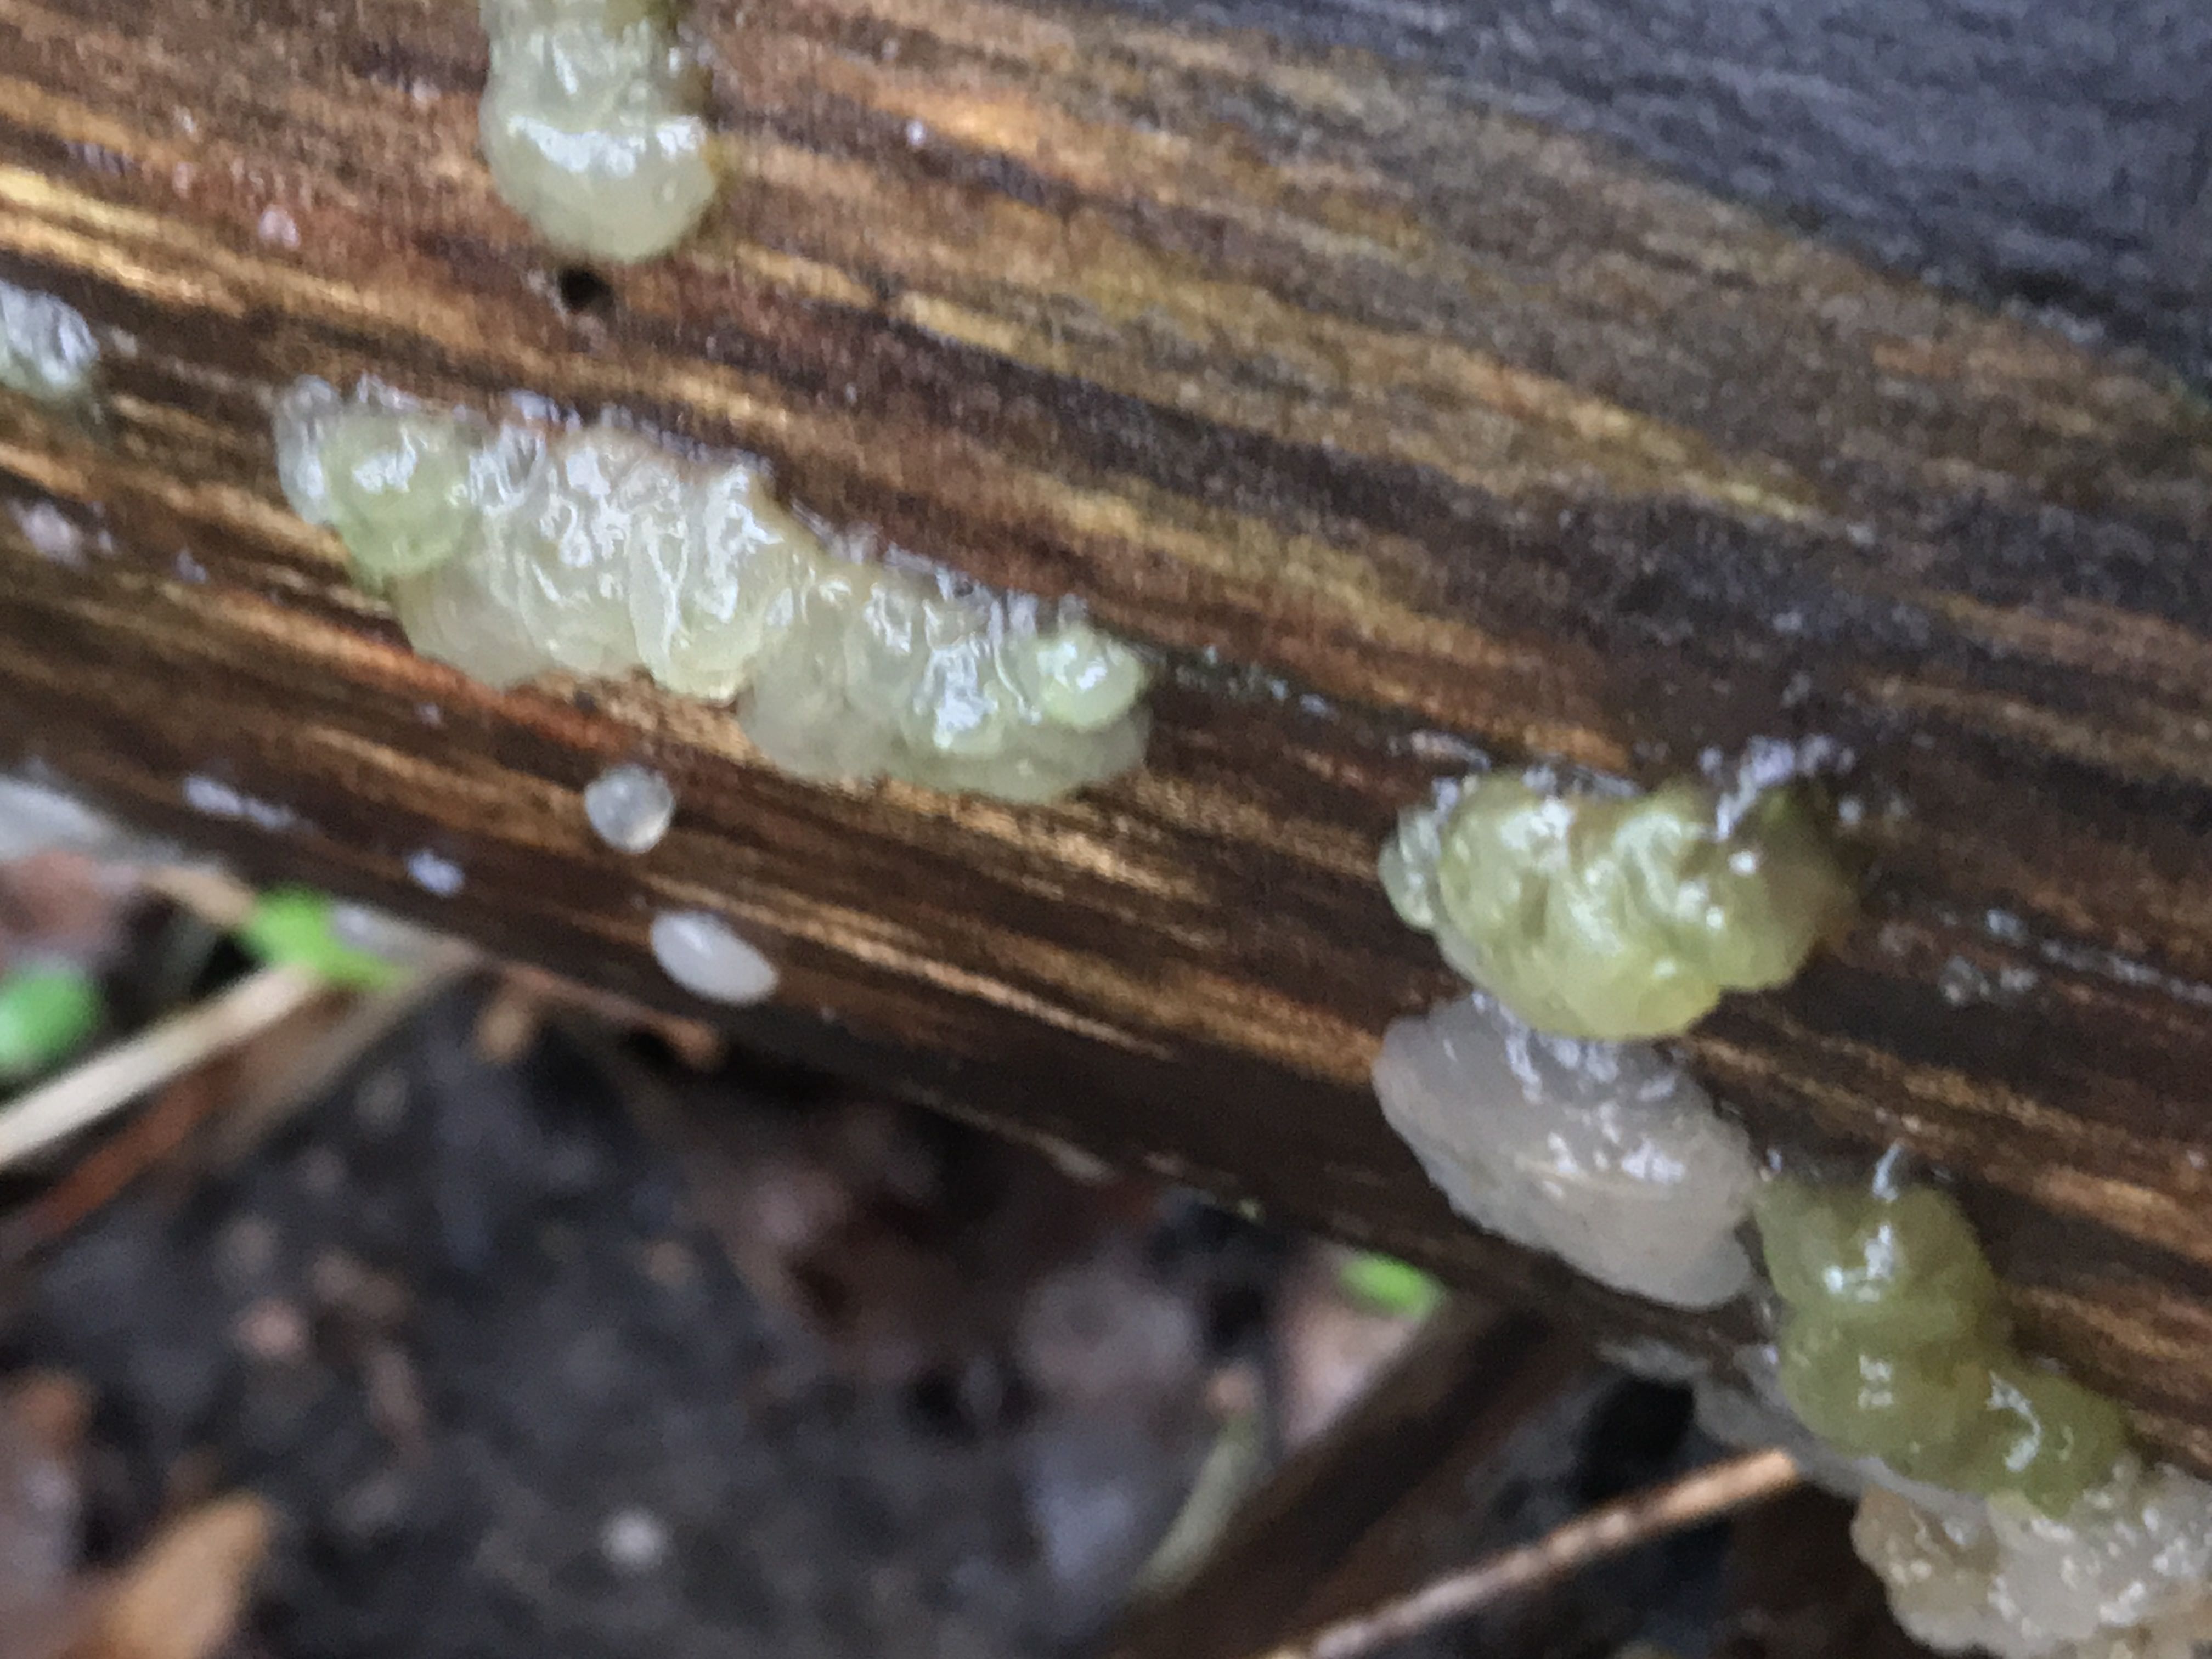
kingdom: Fungi
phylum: Basidiomycota
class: Agaricomycetes
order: Auriculariales
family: Hyaloriaceae
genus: Myxarium
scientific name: Myxarium nucleatum
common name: klar bævretop
